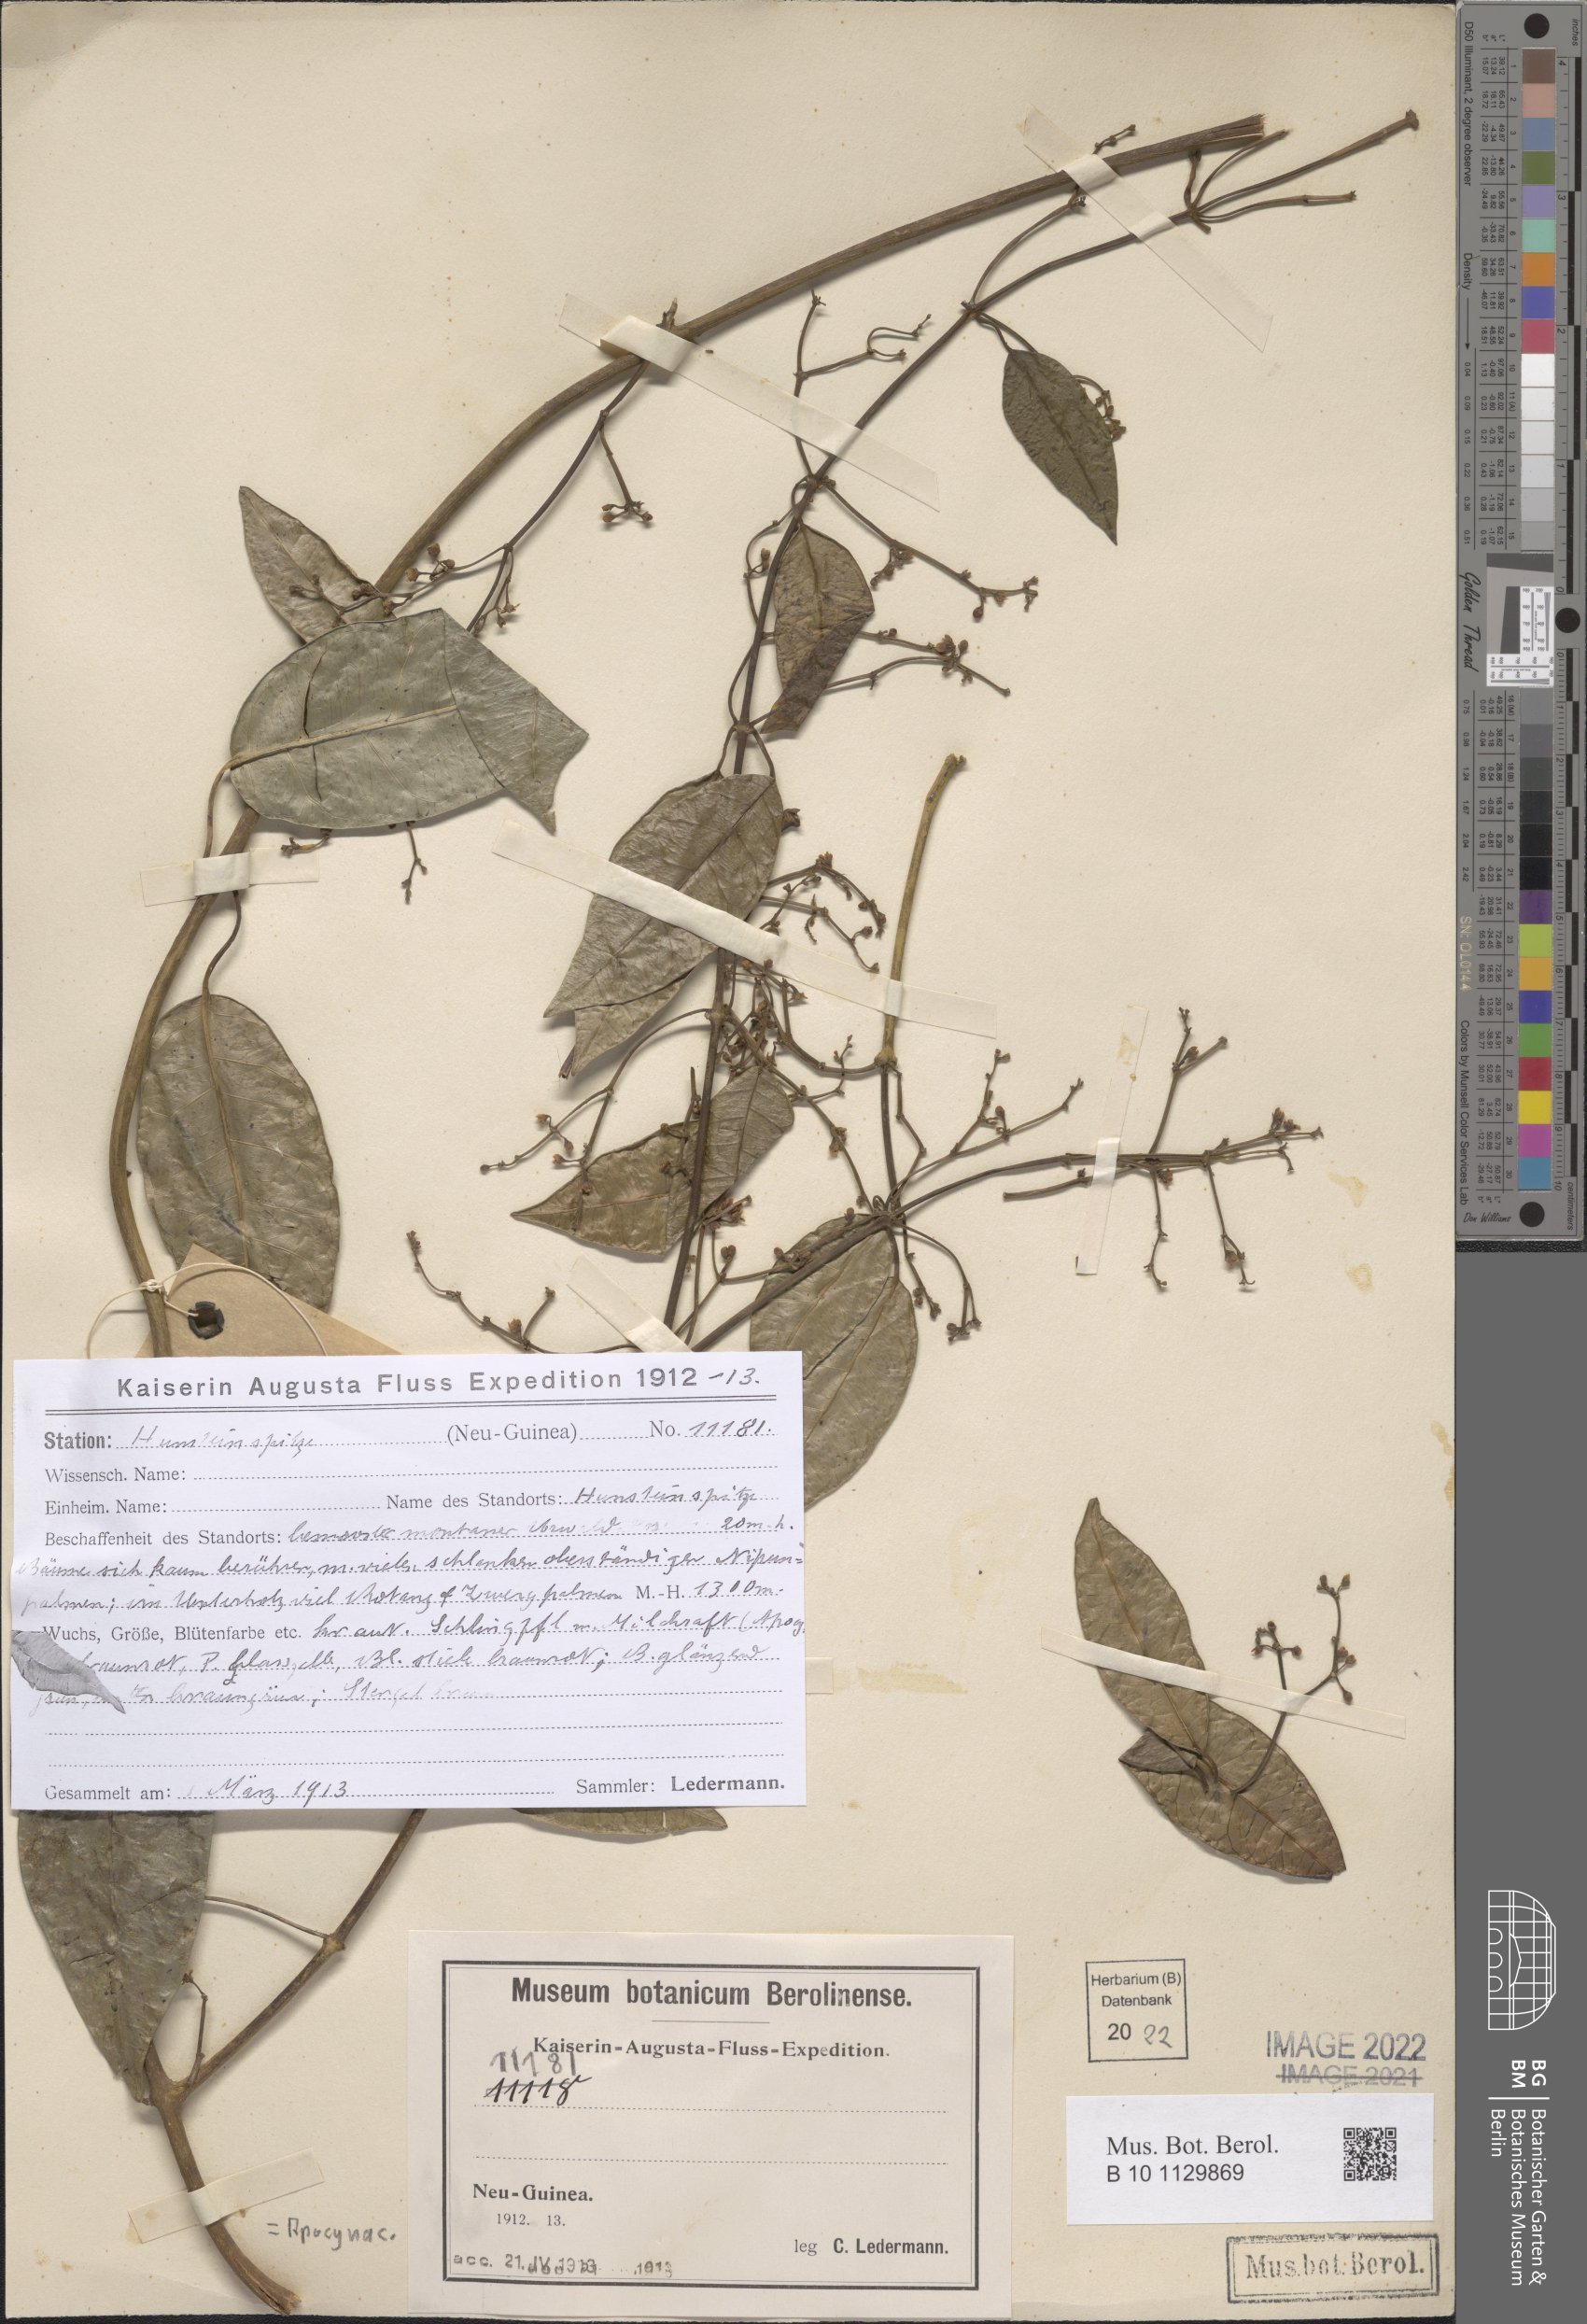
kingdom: Plantae
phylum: Tracheophyta
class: Magnoliopsida
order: Gentianales
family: Apocynaceae
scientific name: Apocynaceae
